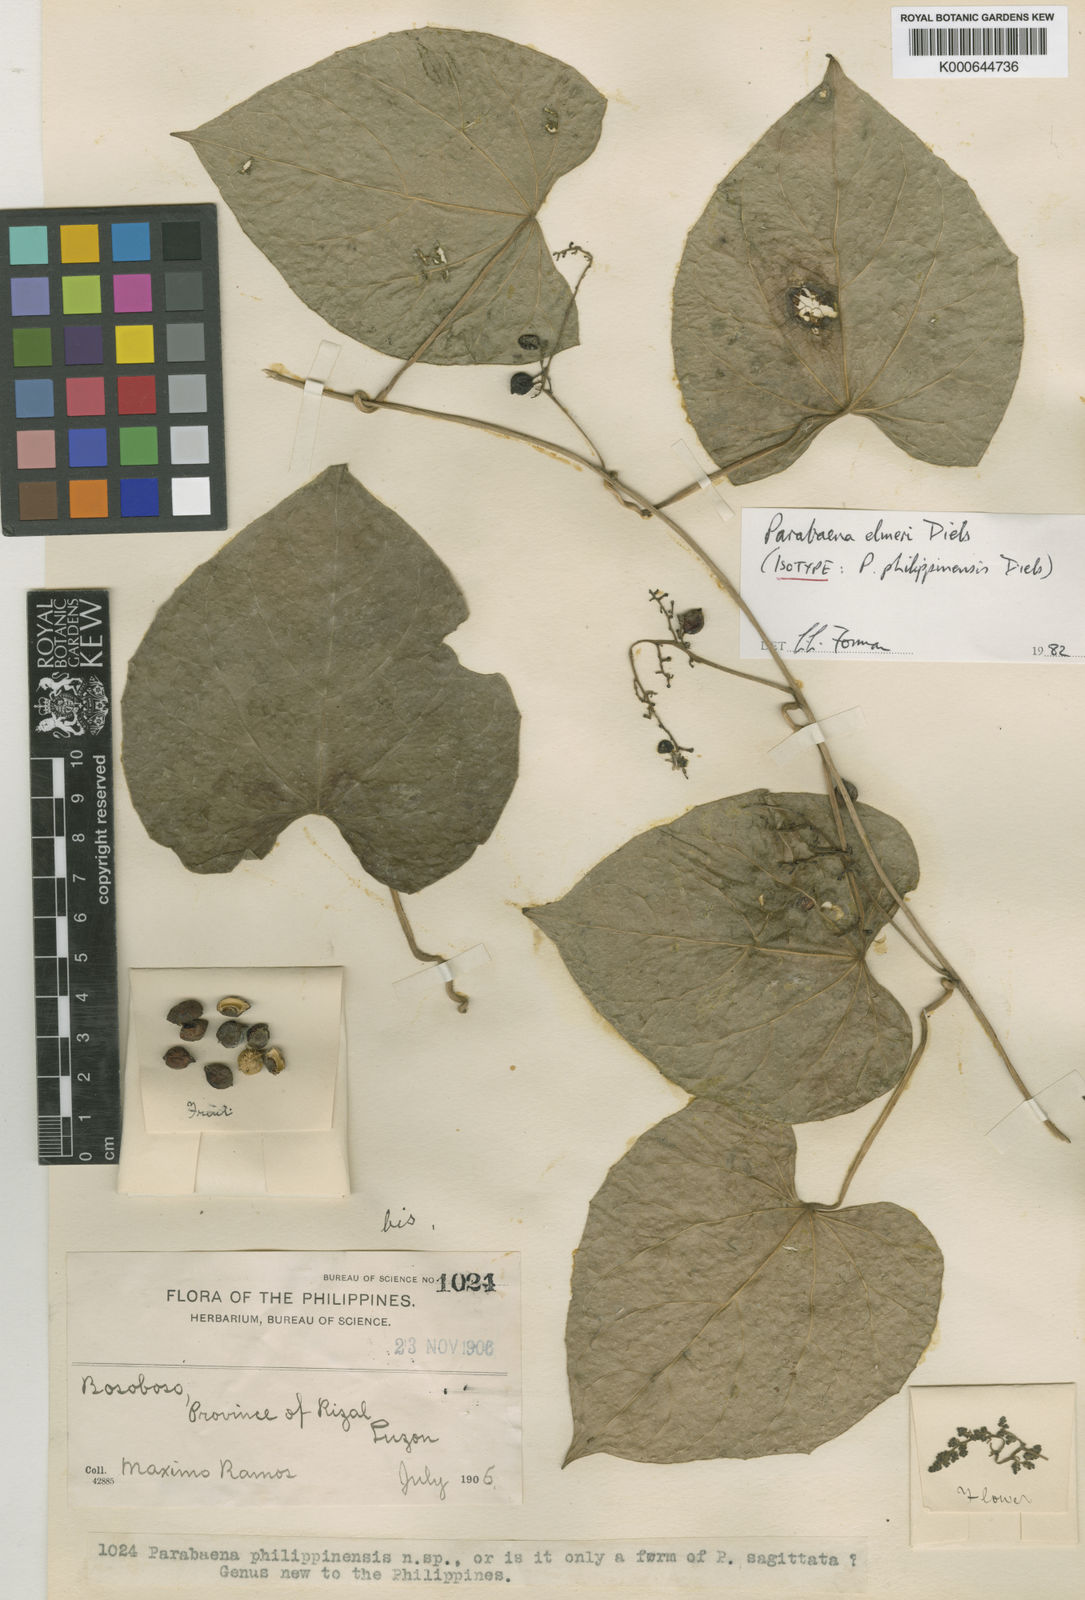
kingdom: Plantae
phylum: Tracheophyta
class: Magnoliopsida
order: Ranunculales
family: Menispermaceae
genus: Parabaena
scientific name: Parabaena elmeri
